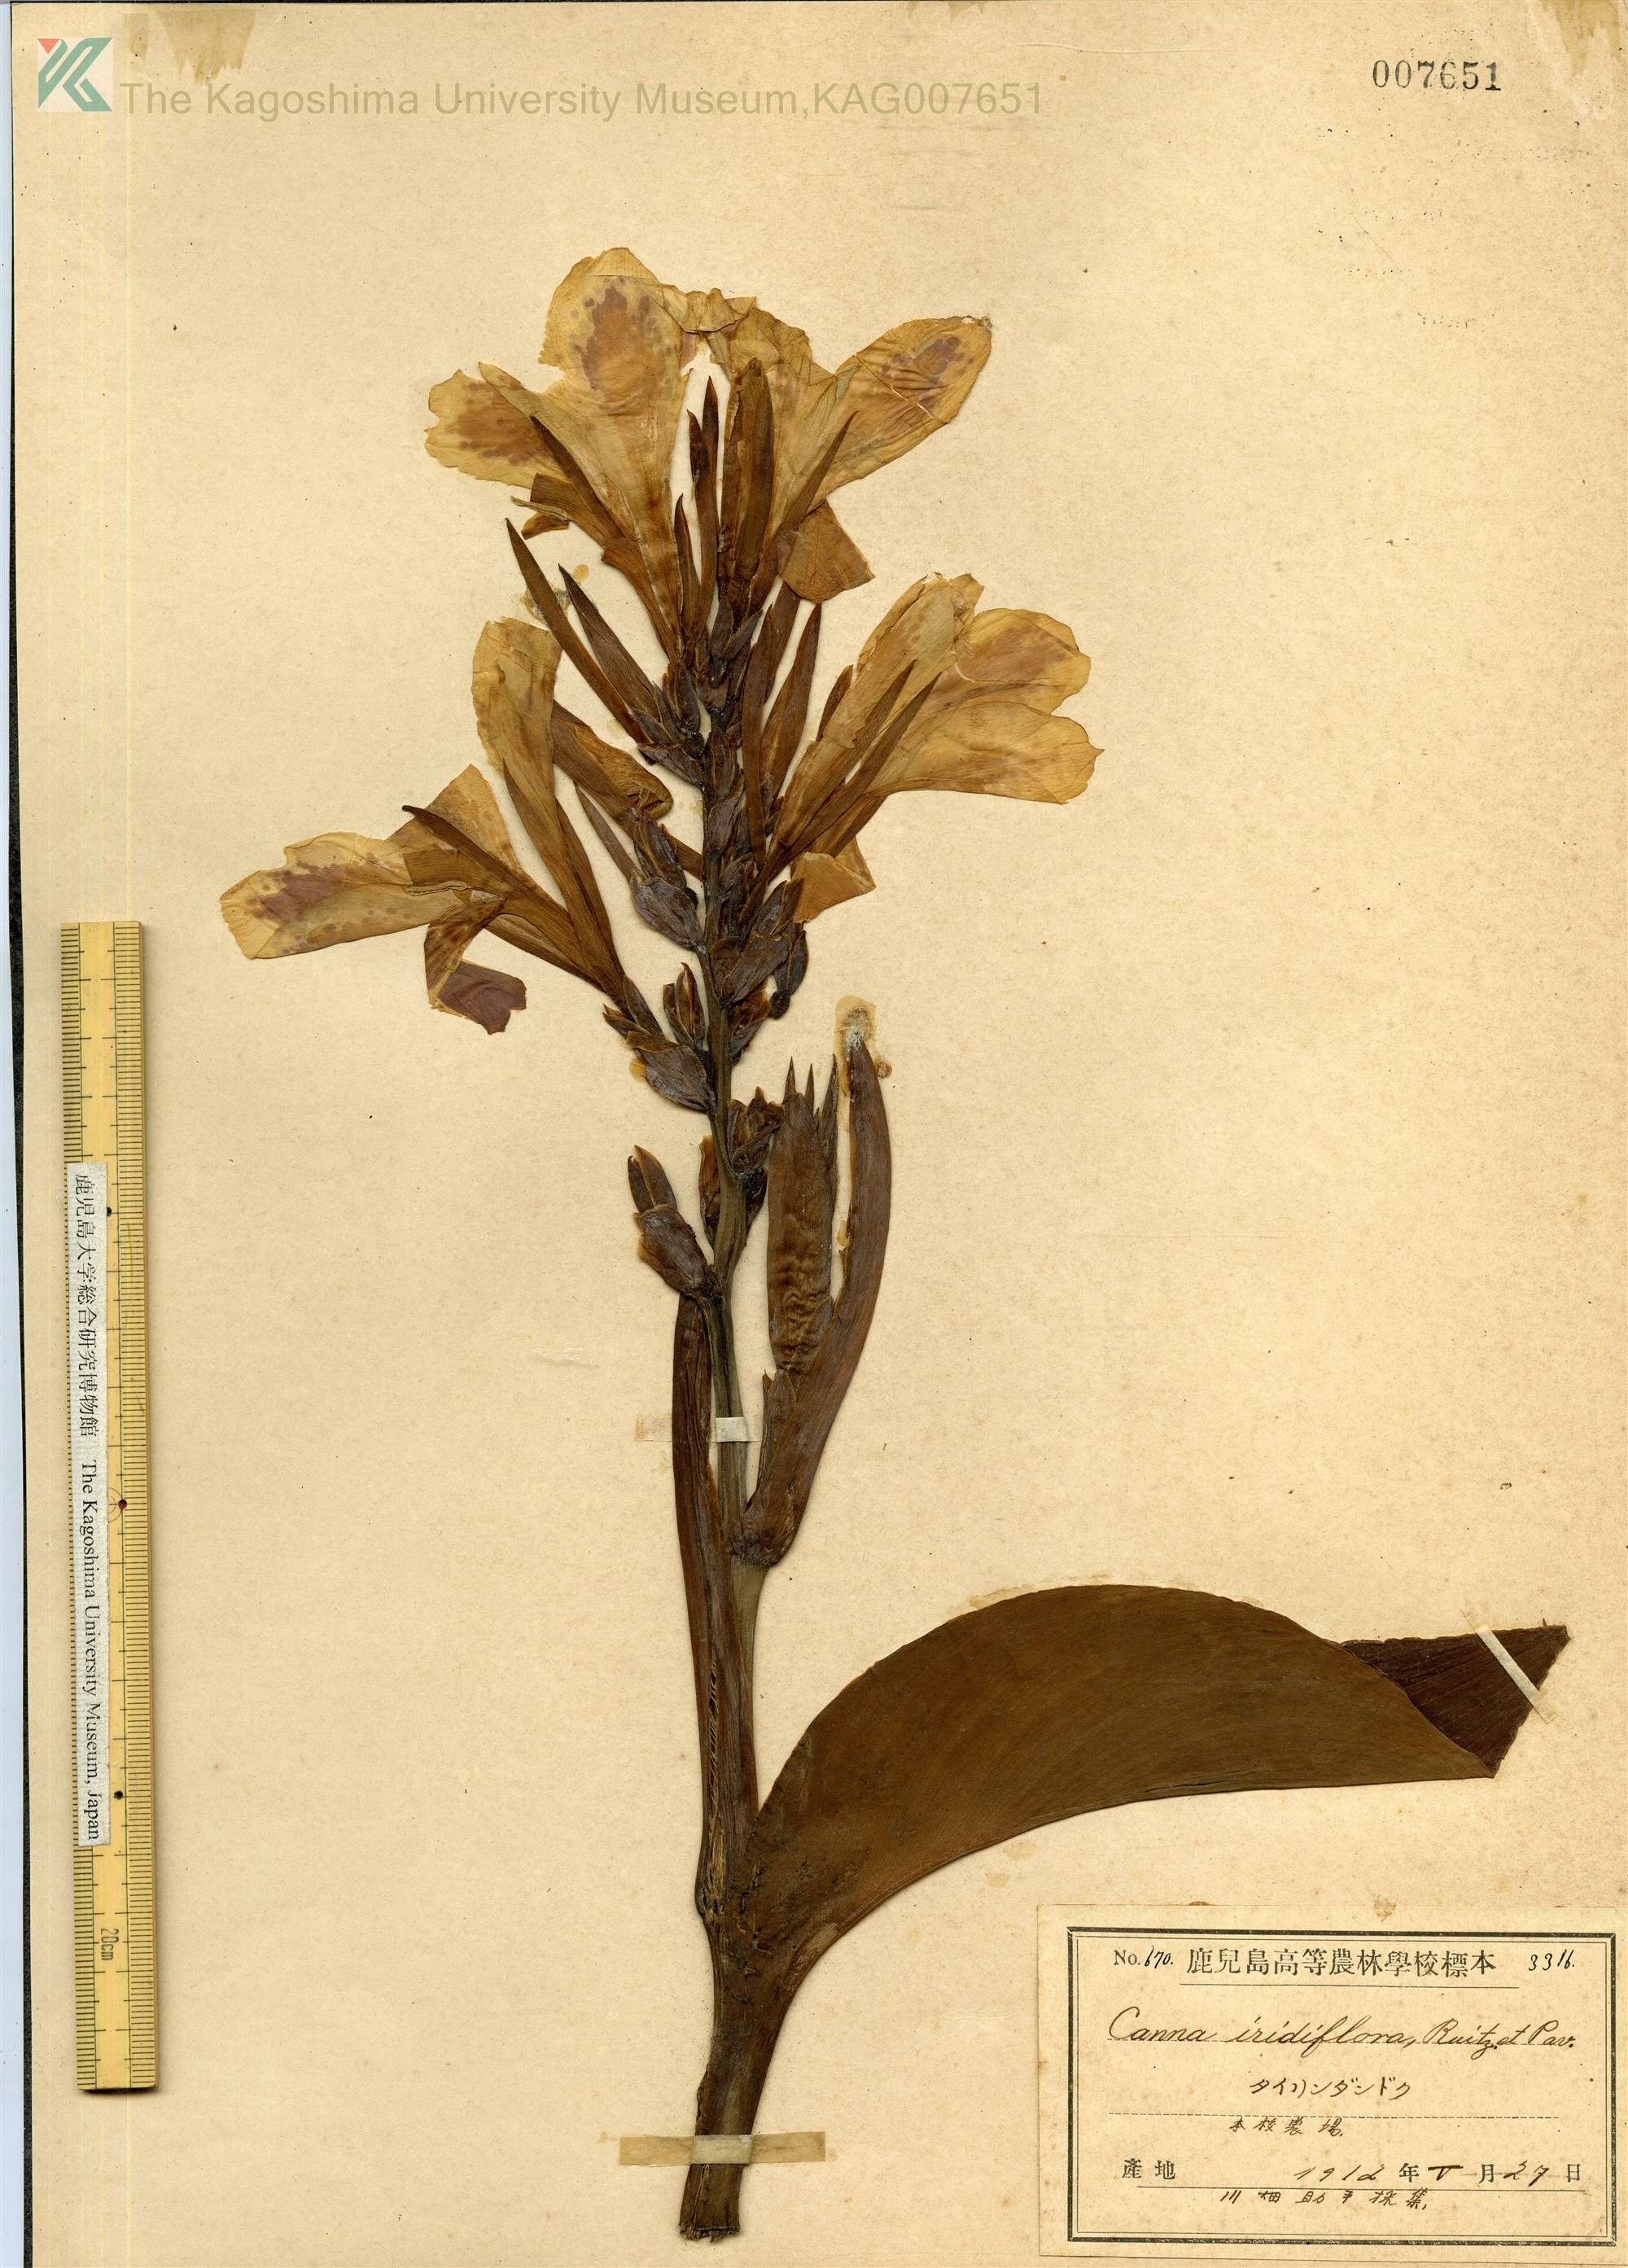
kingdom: Plantae
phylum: Tracheophyta
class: Liliopsida
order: Zingiberales
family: Cannaceae
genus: Canna
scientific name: Canna indica
